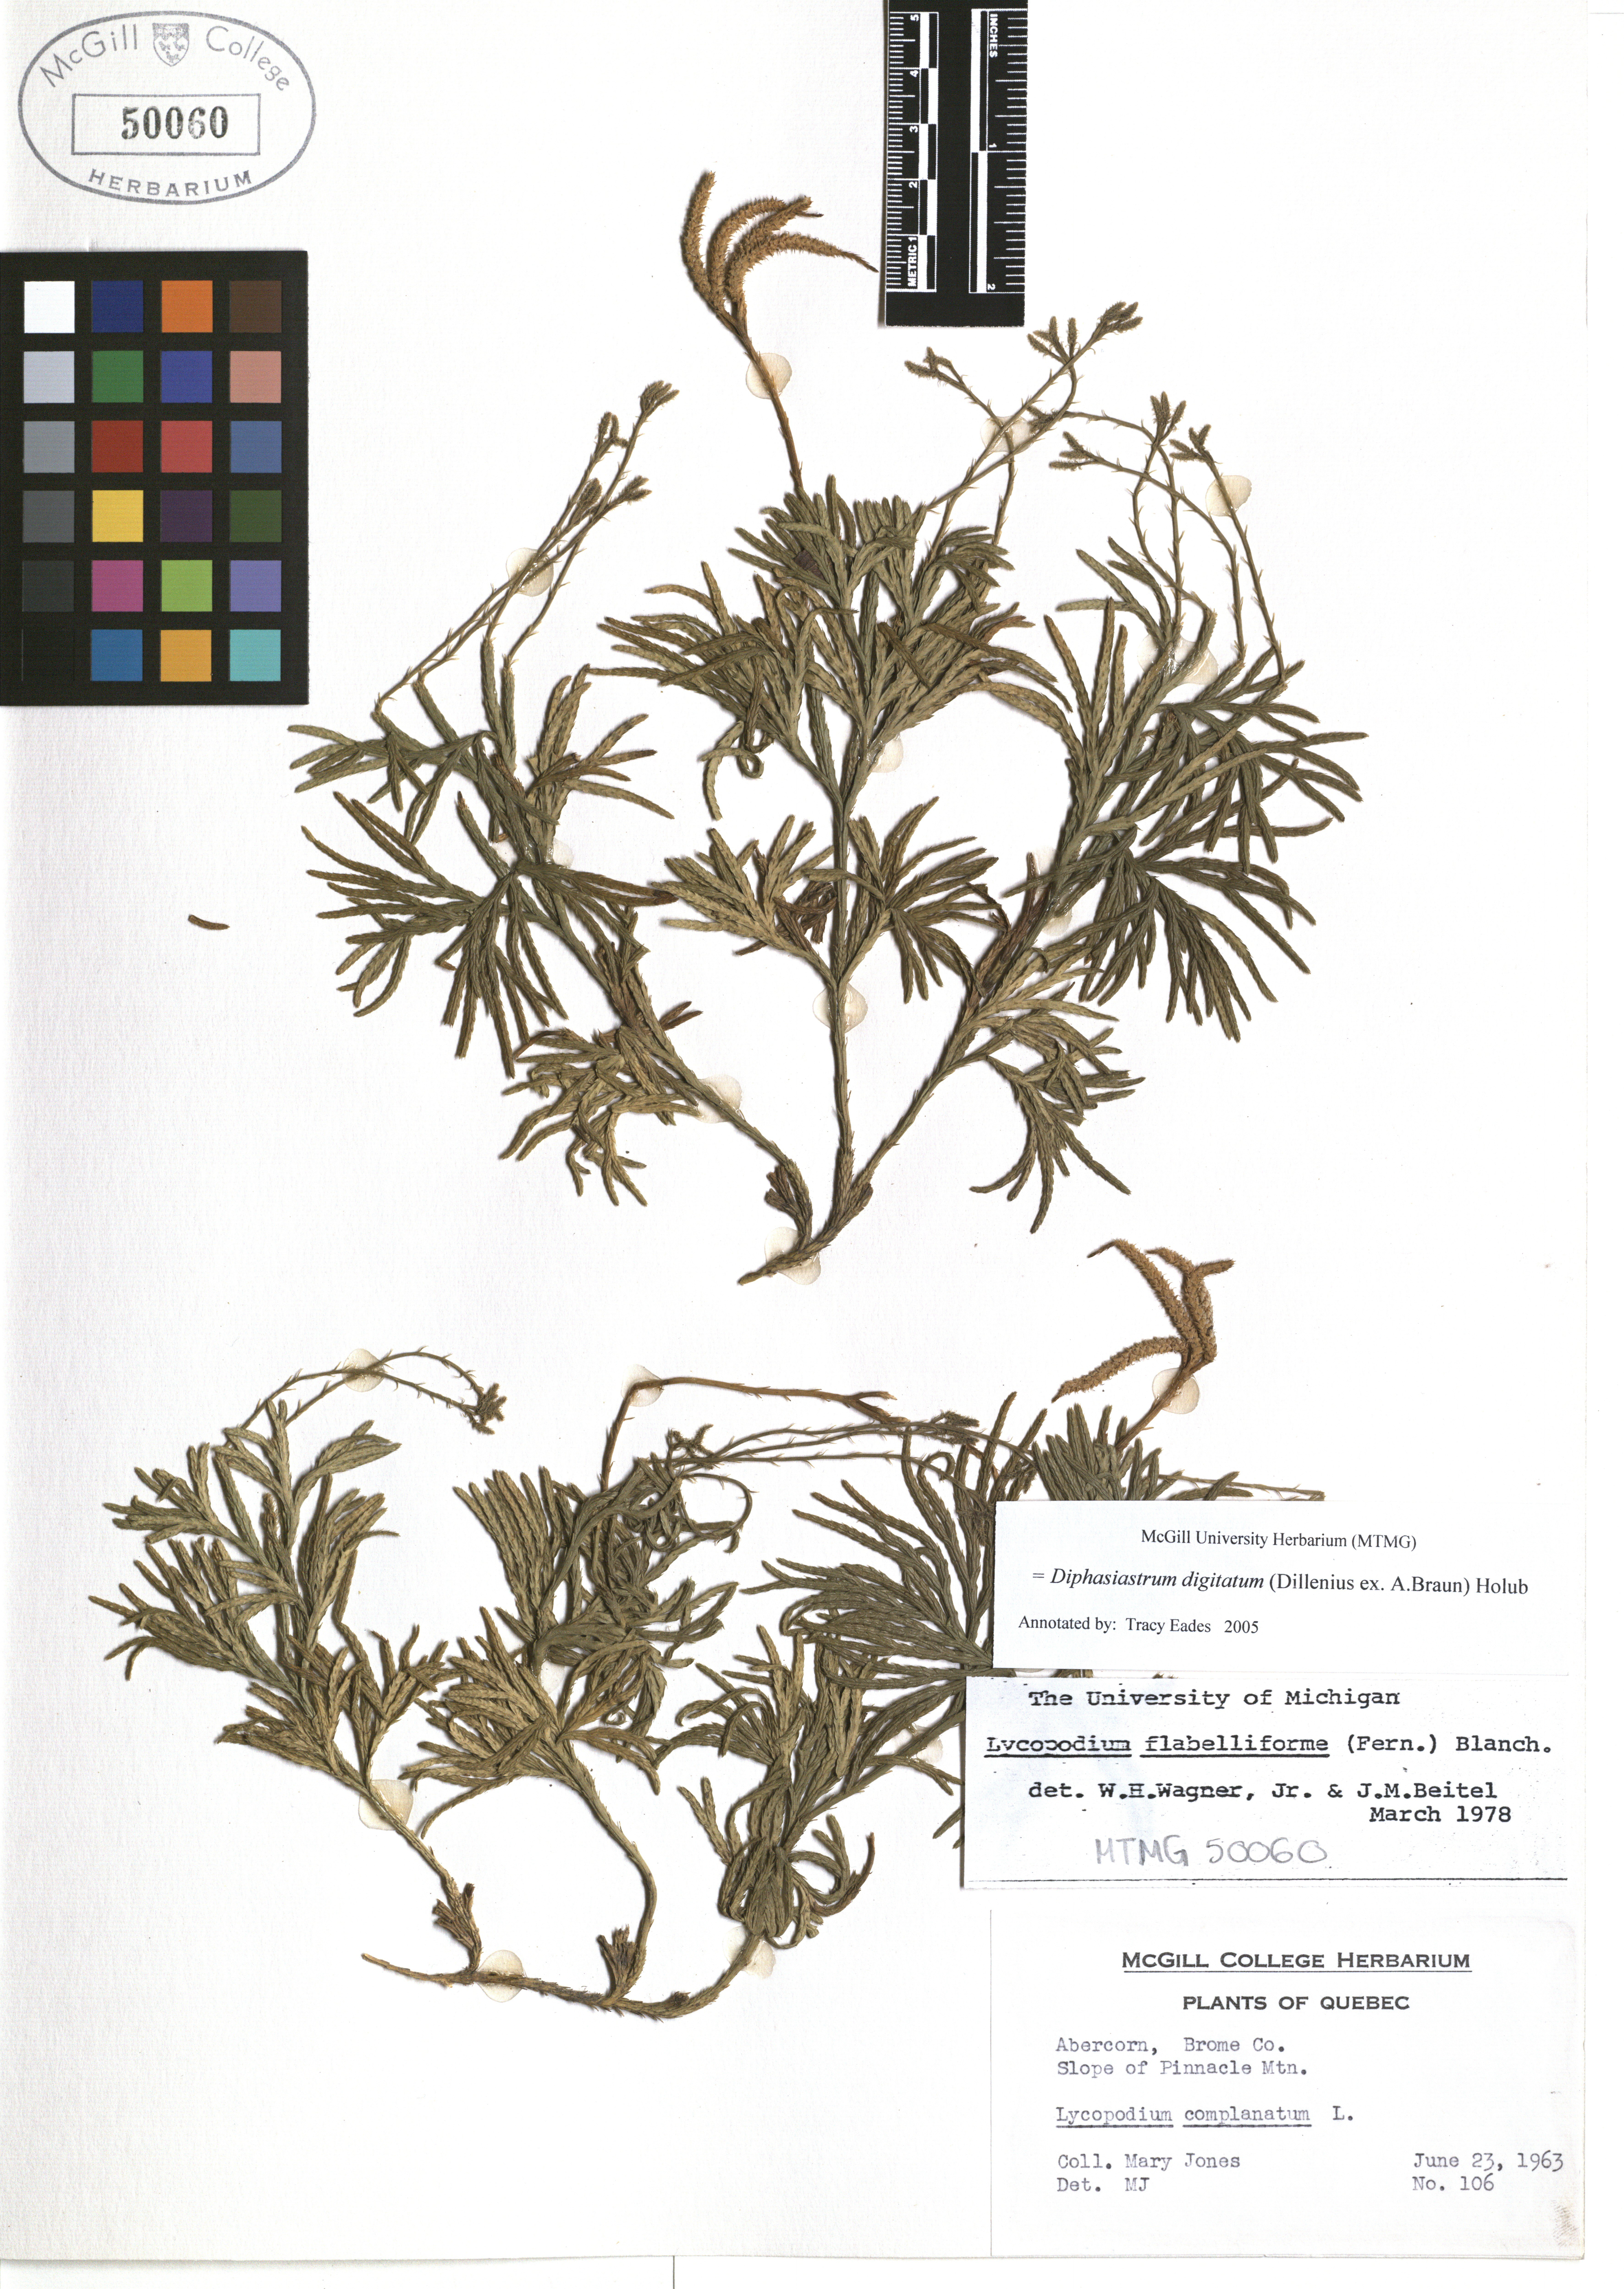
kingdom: Plantae
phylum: Tracheophyta
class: Lycopodiopsida
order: Lycopodiales
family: Lycopodiaceae
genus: Diphasiastrum
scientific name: Diphasiastrum digitatum
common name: Southern running-pine
